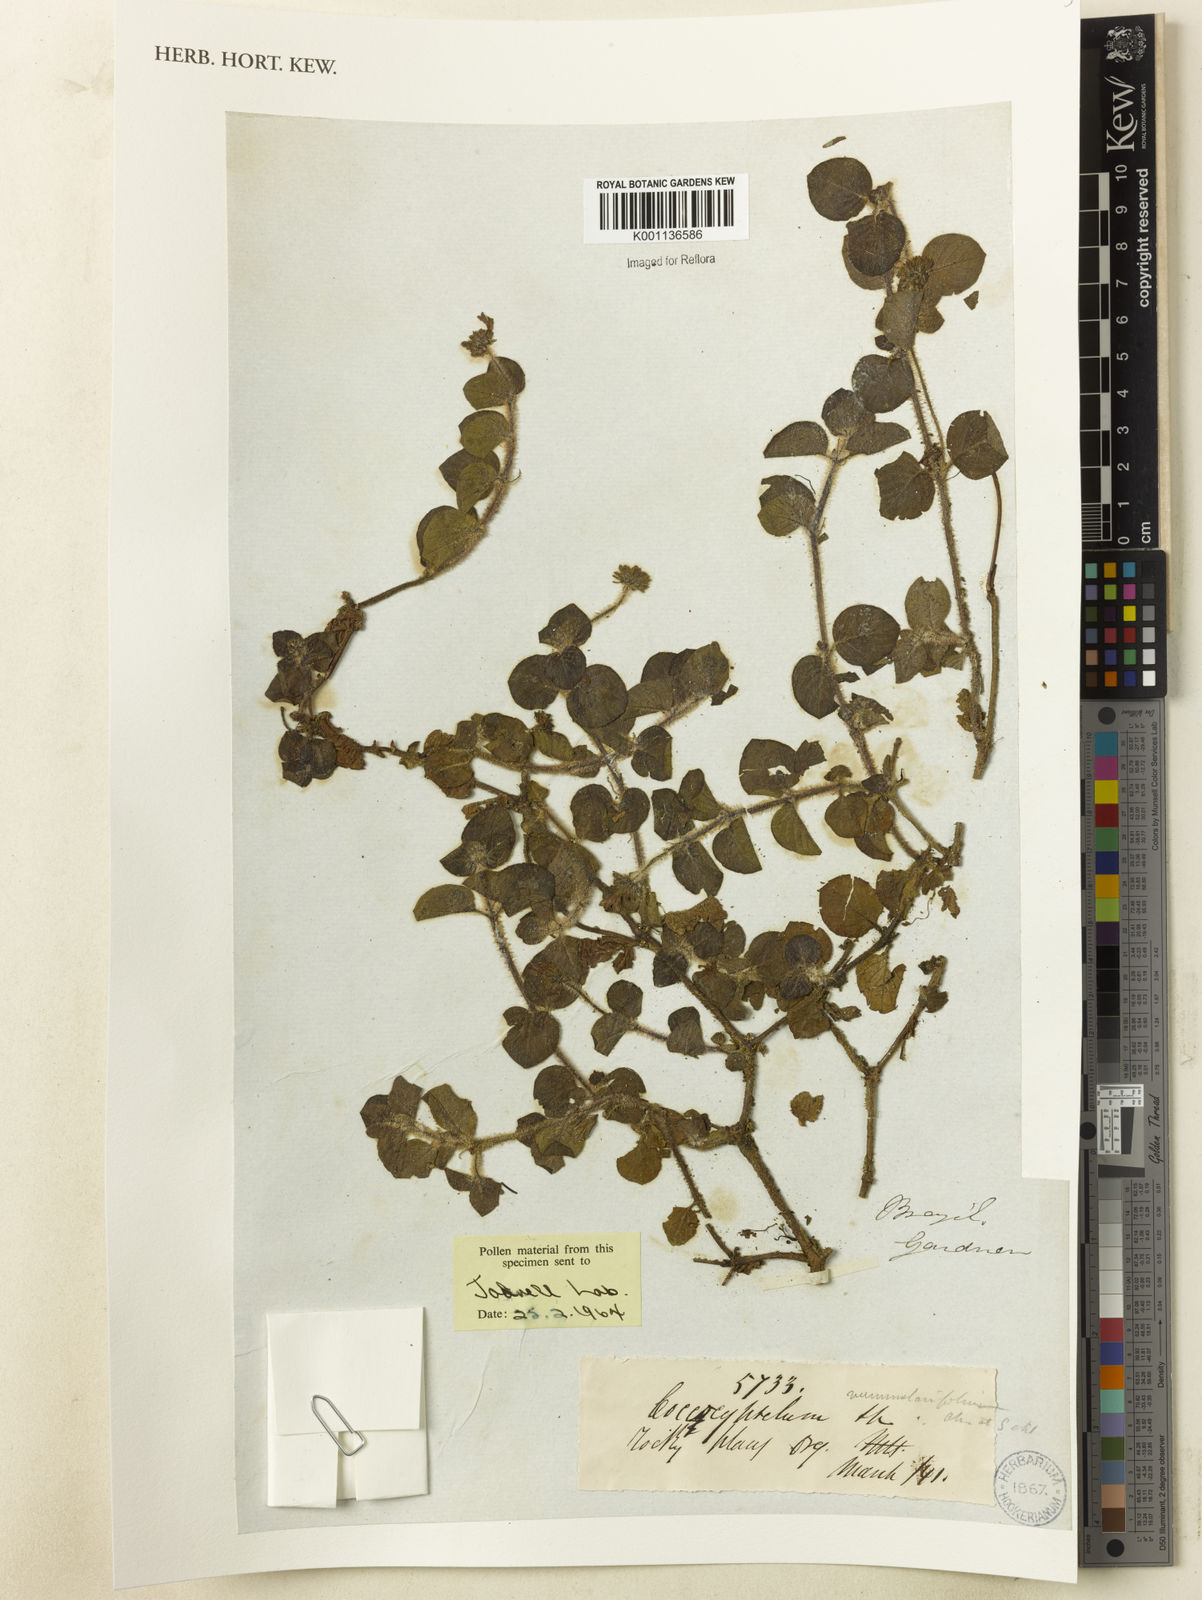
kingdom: Plantae
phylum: Tracheophyta
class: Magnoliopsida
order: Gentianales
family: Rubiaceae
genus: Coccocypselum
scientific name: Coccocypselum capitatum
